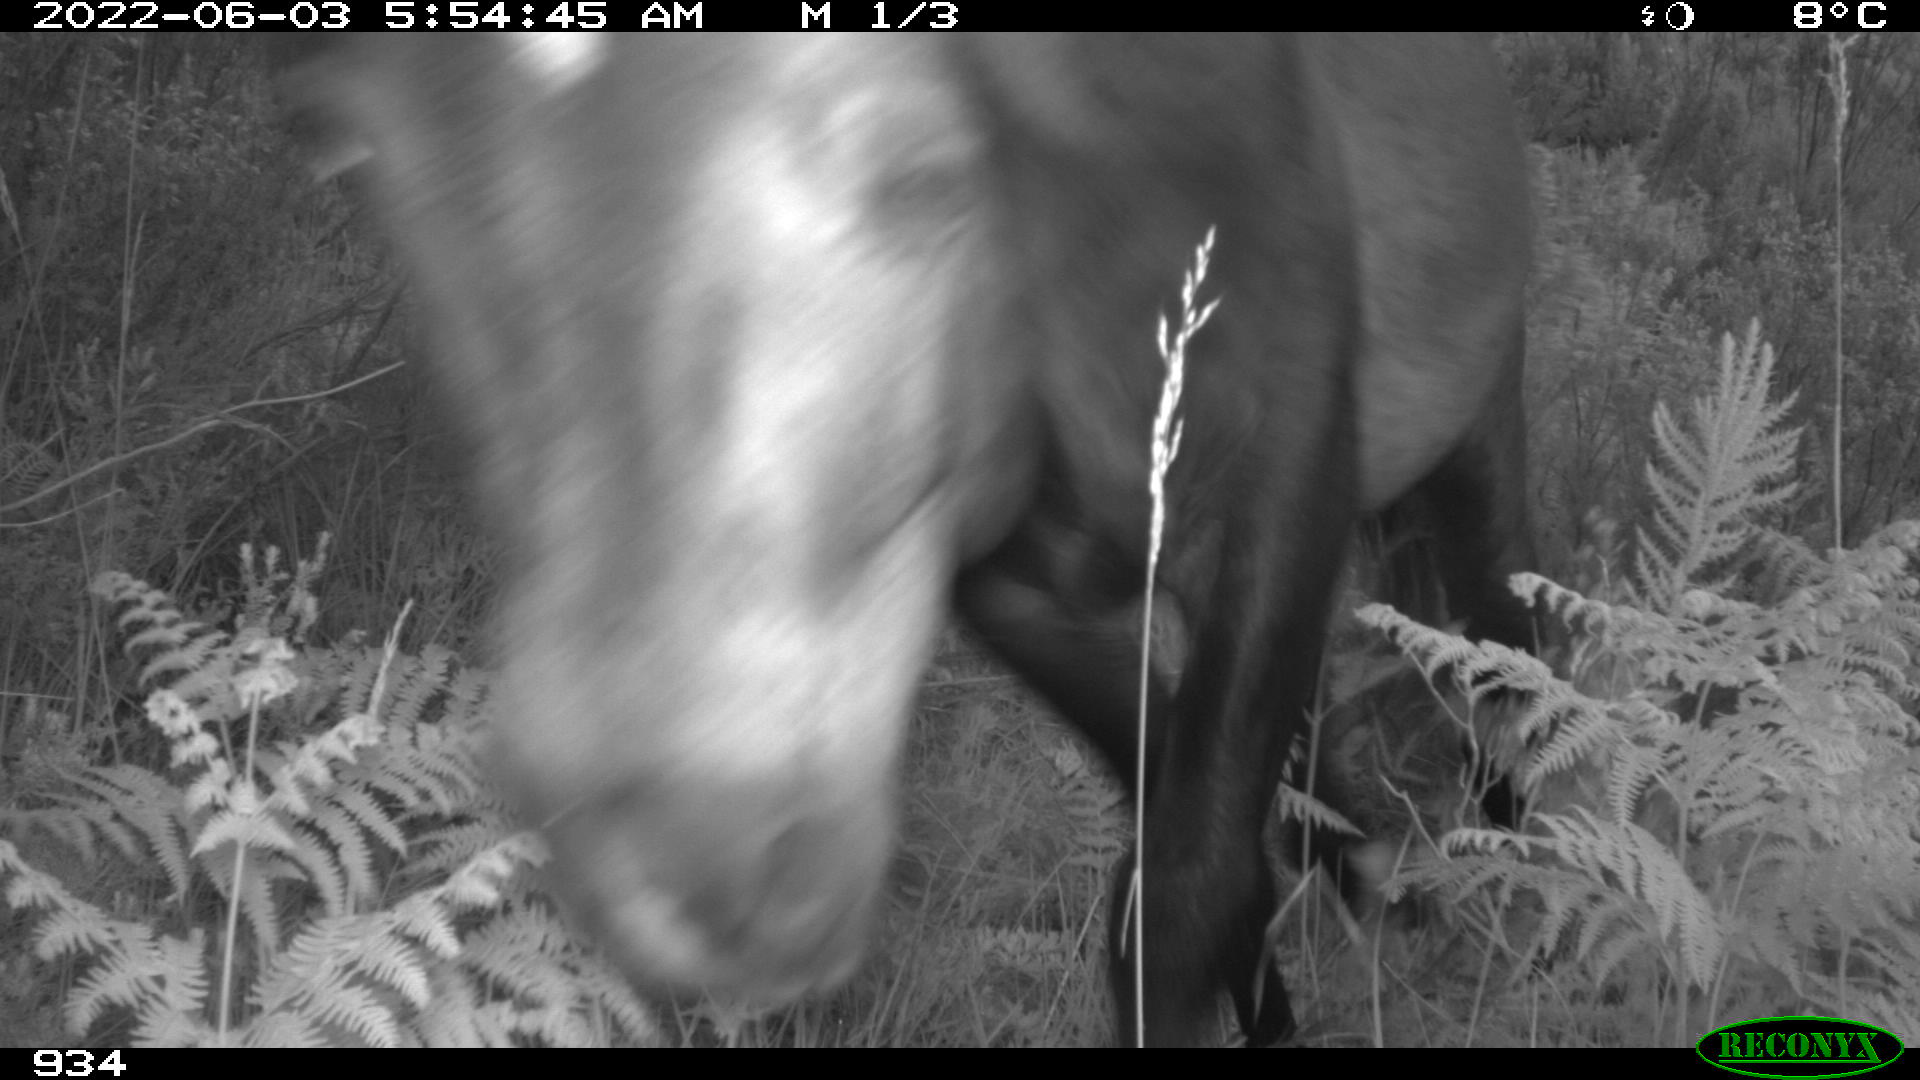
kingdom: Animalia
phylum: Chordata
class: Mammalia
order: Perissodactyla
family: Equidae
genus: Equus
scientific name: Equus caballus
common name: Horse
